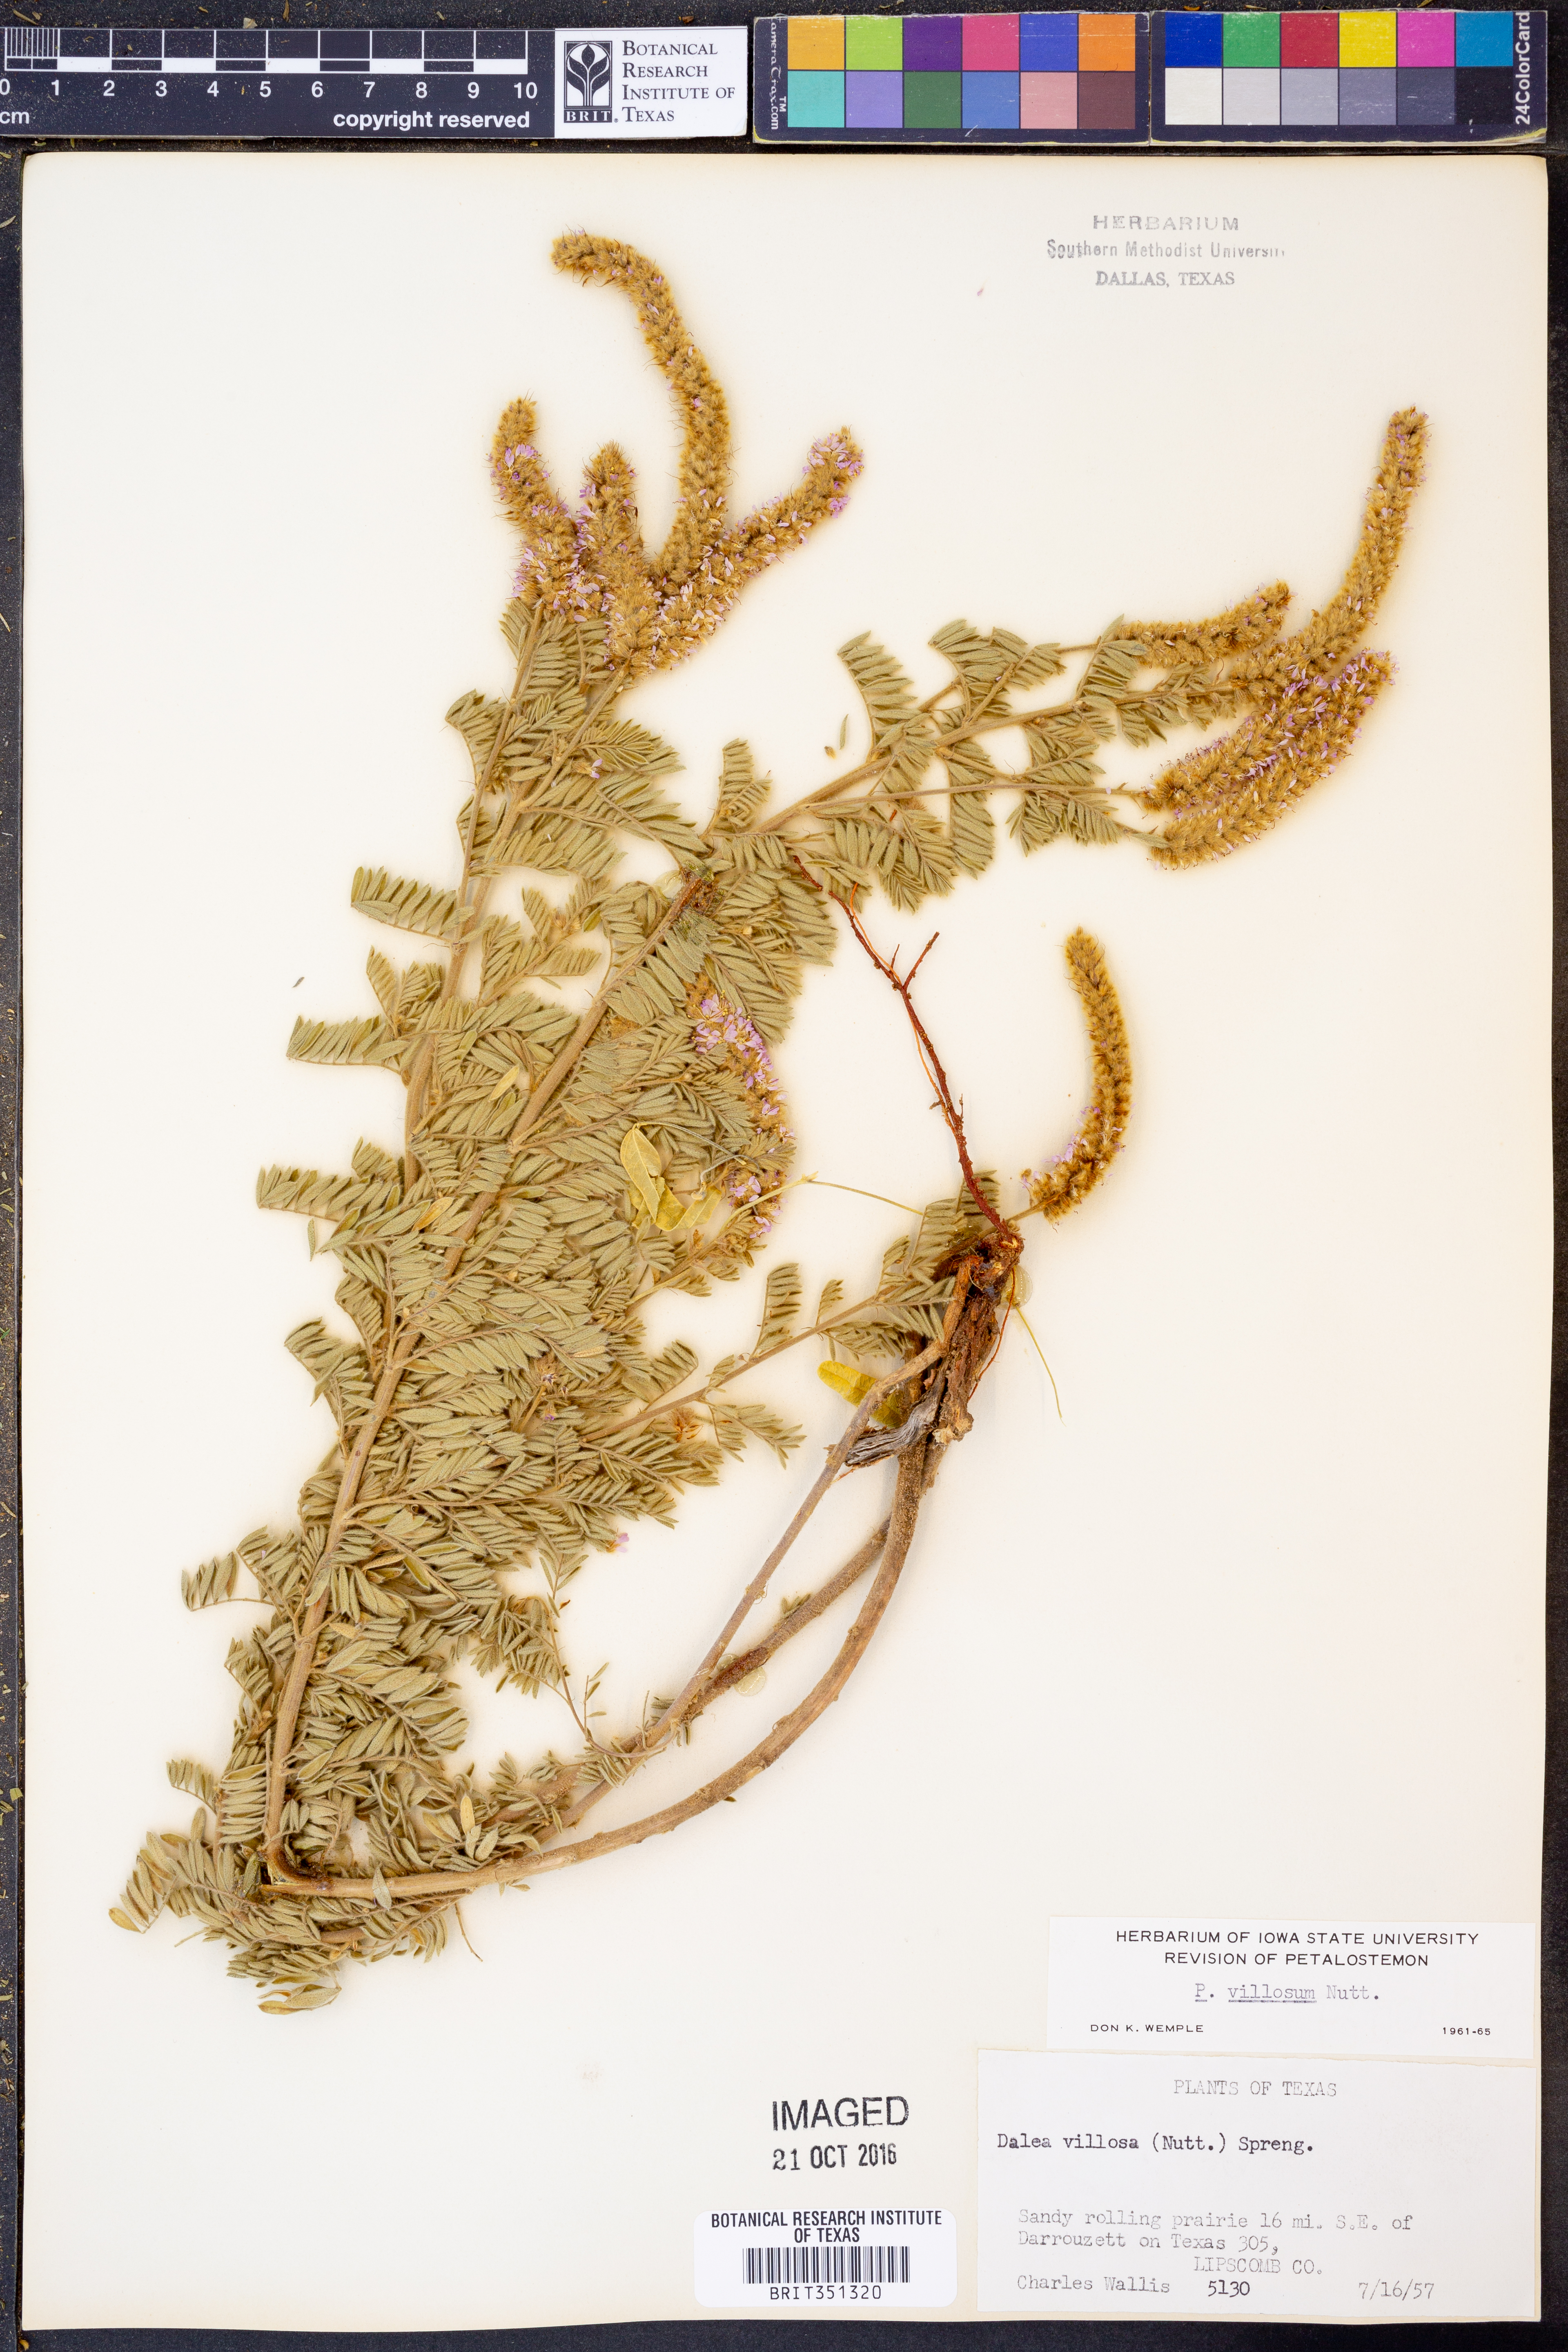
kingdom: Plantae
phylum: Tracheophyta
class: Magnoliopsida
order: Fabales
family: Fabaceae
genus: Dalea
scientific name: Dalea villosa
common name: Silky prairie-clover
